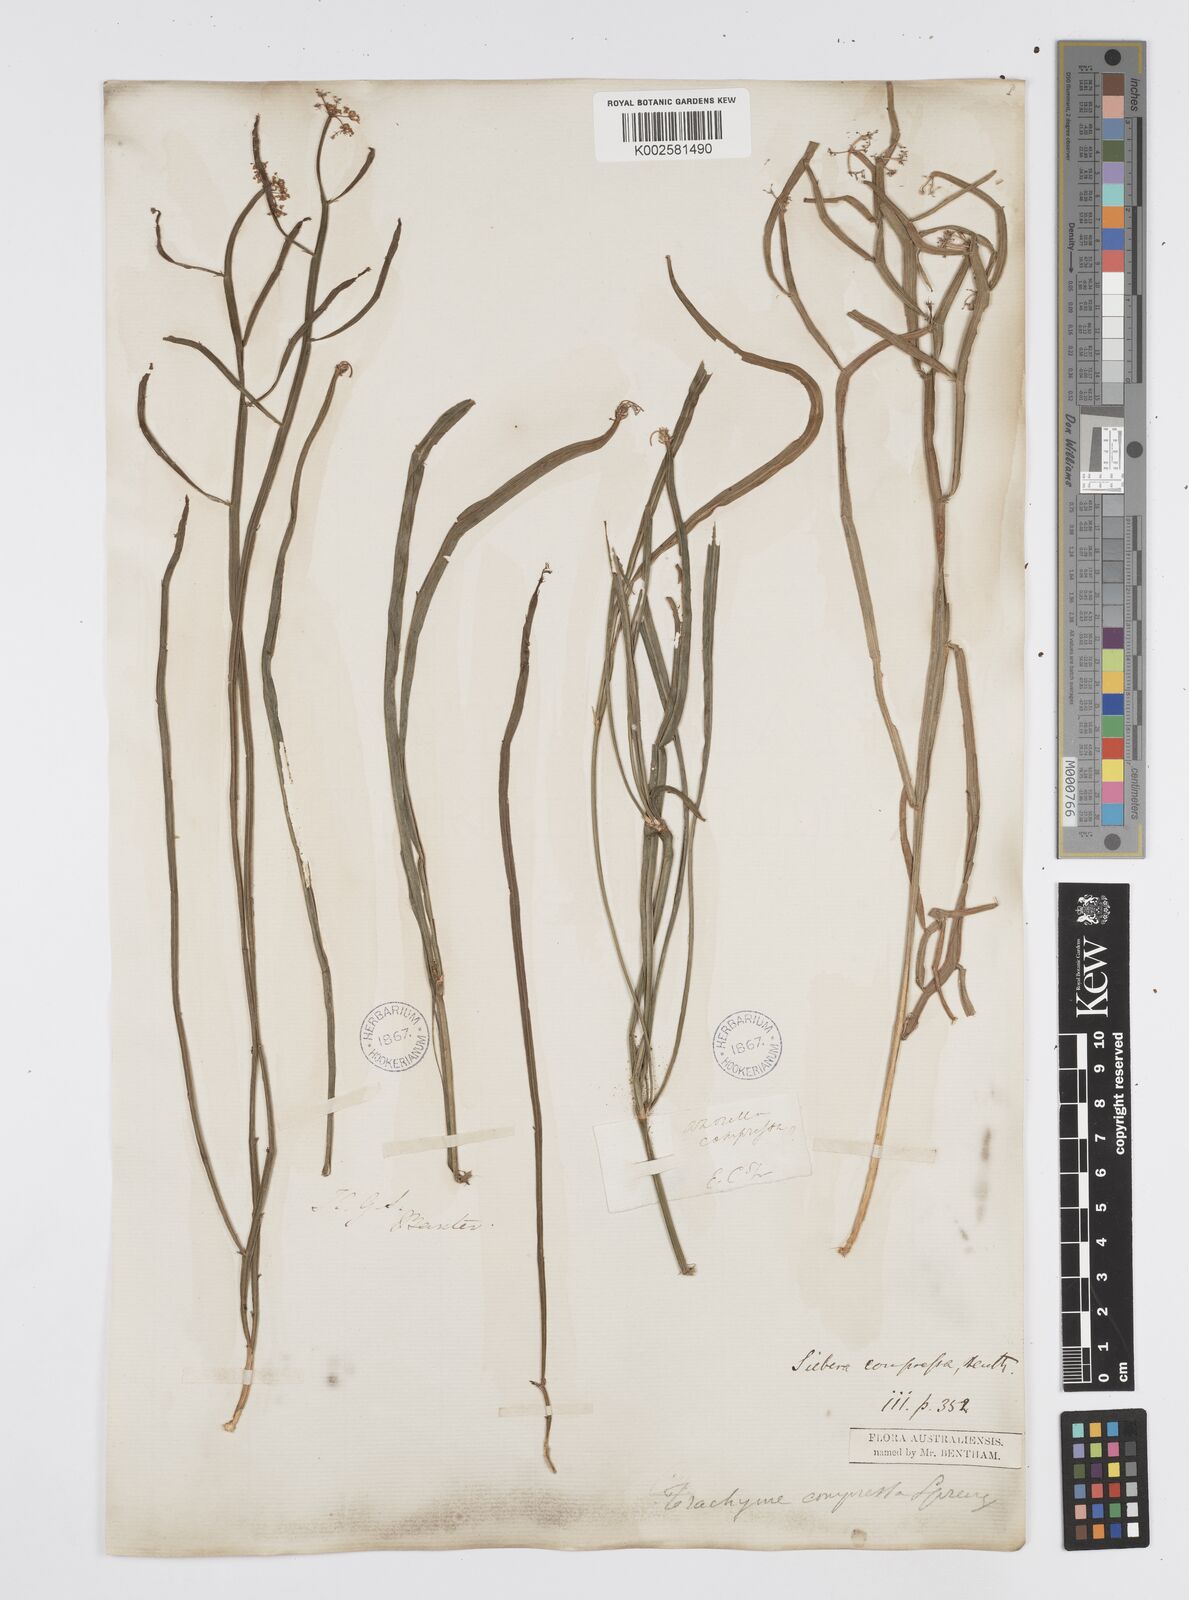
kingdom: Plantae
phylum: Tracheophyta
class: Magnoliopsida
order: Apiales
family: Apiaceae
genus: Centella
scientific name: Centella
